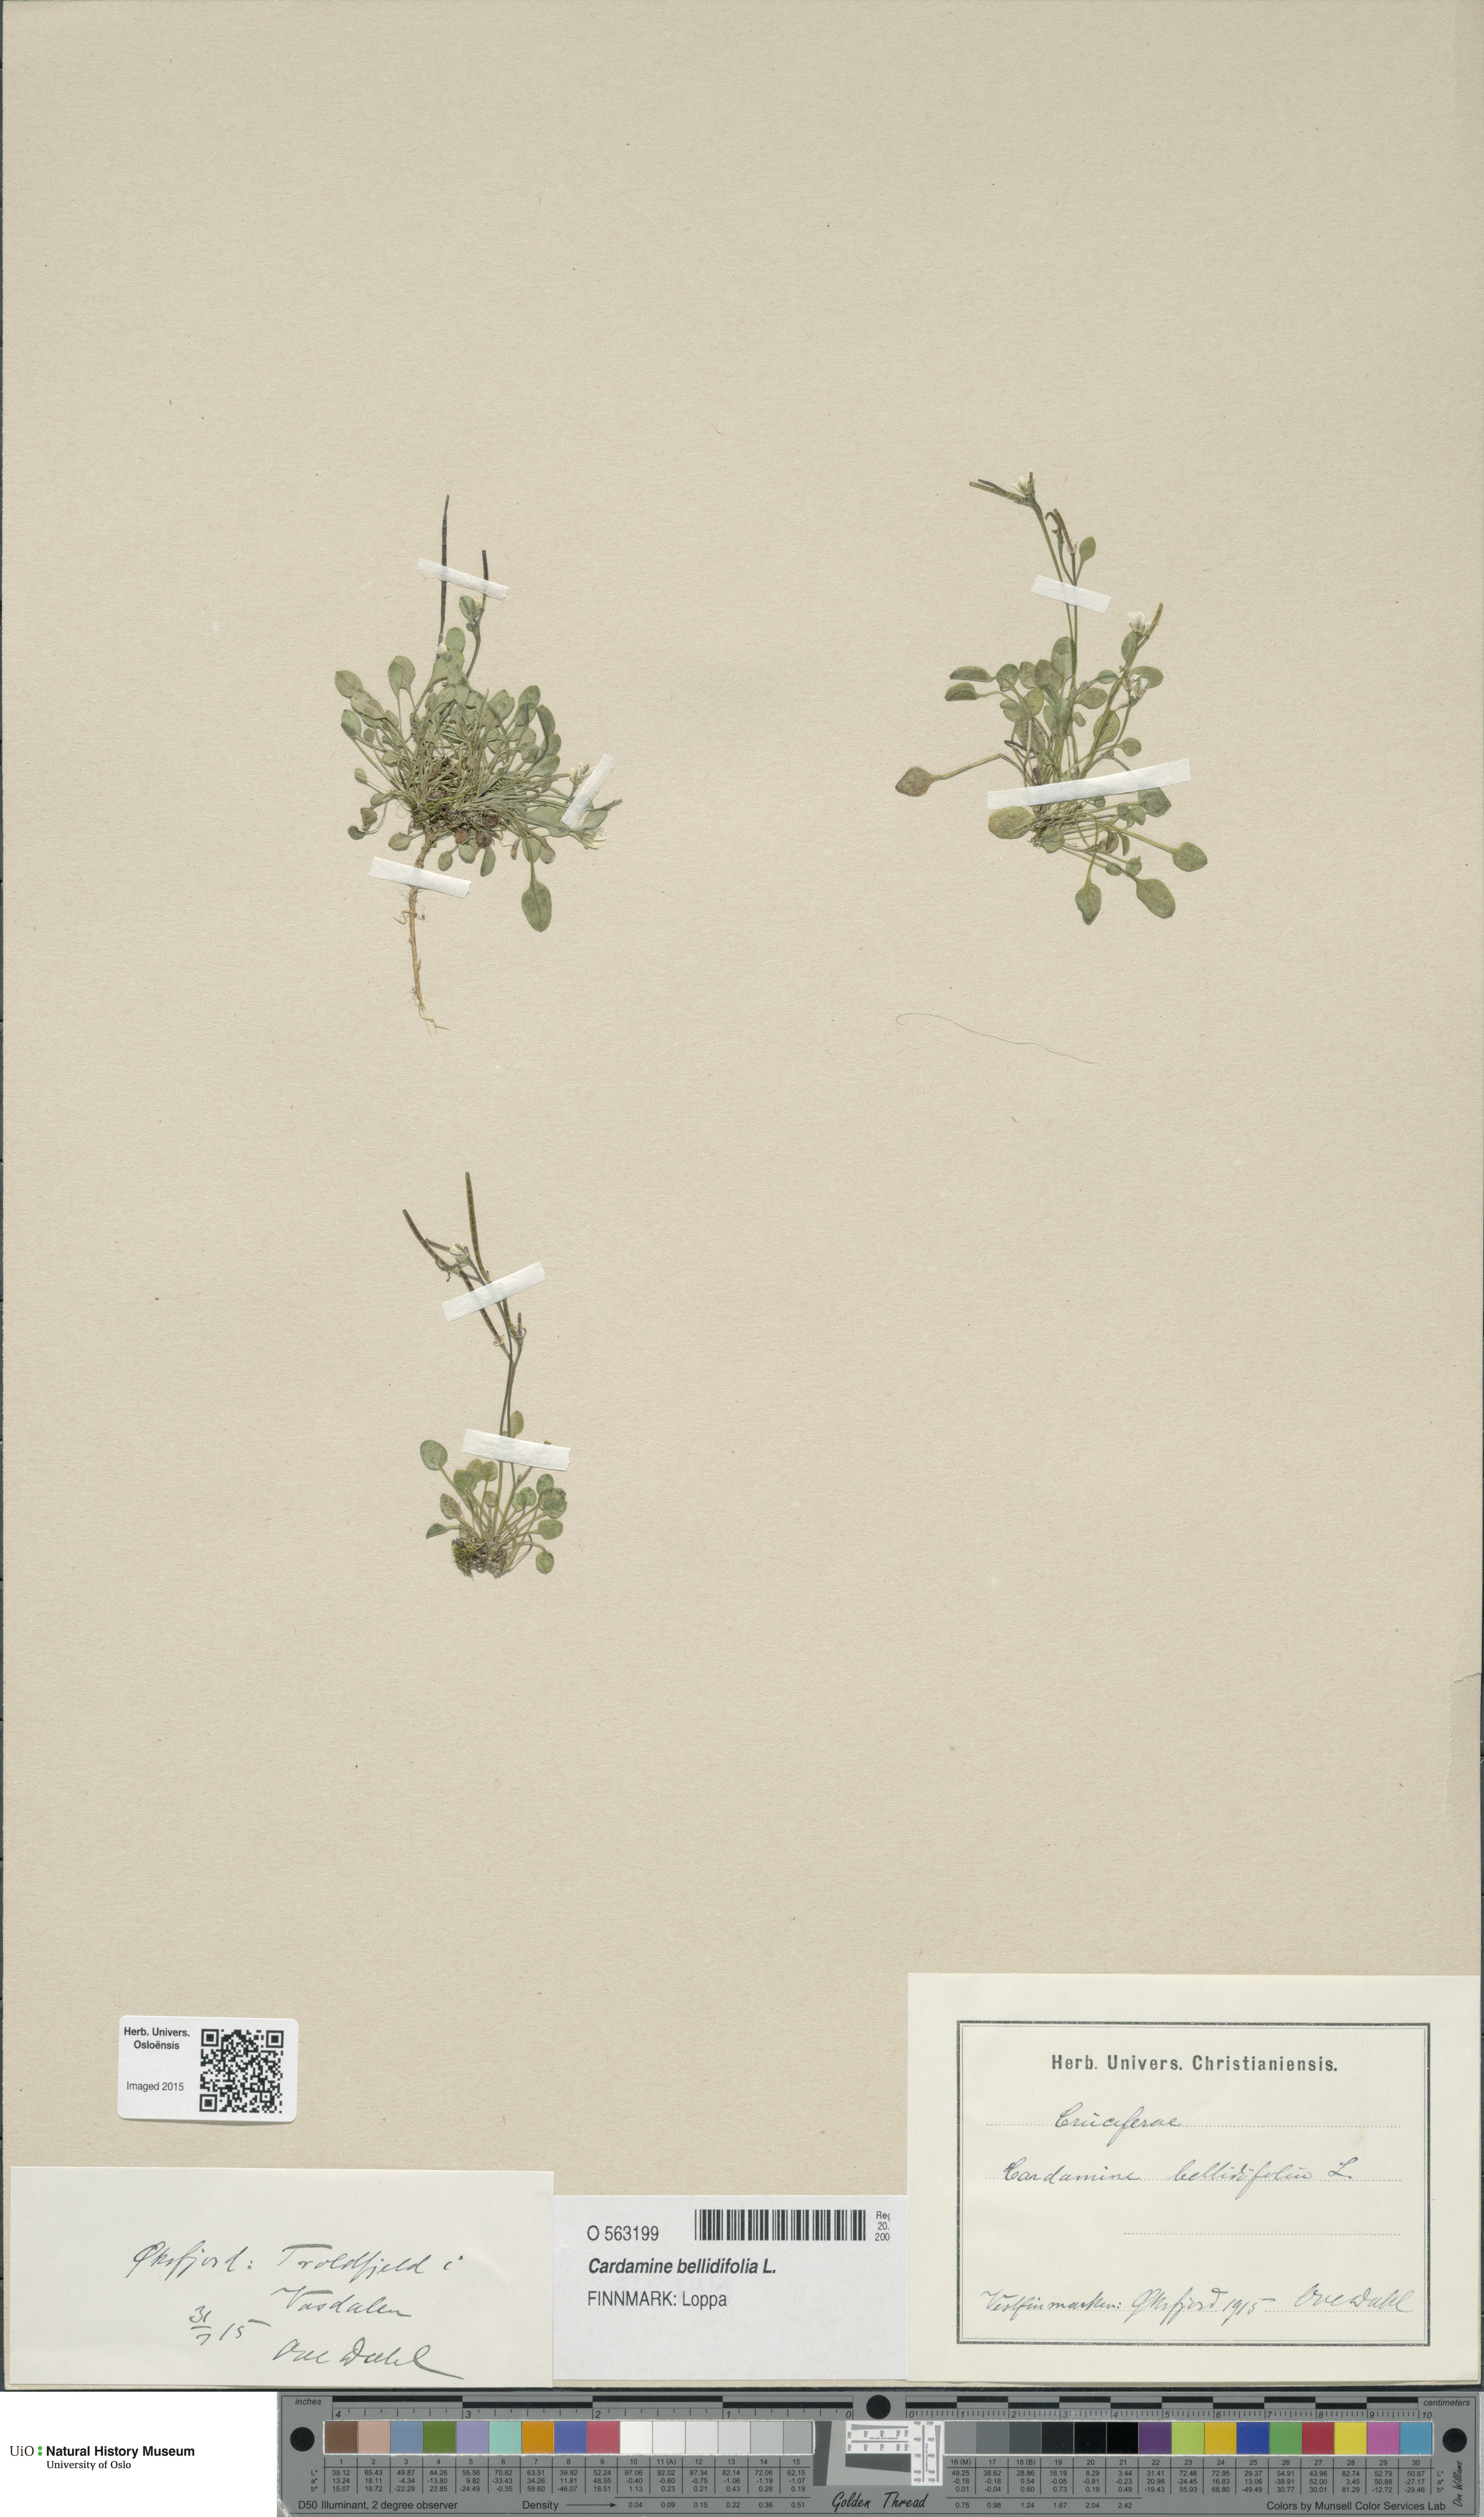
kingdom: Plantae
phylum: Tracheophyta
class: Magnoliopsida
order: Brassicales
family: Brassicaceae
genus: Cardamine
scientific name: Cardamine bellidifolia
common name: Alpine bittercress
